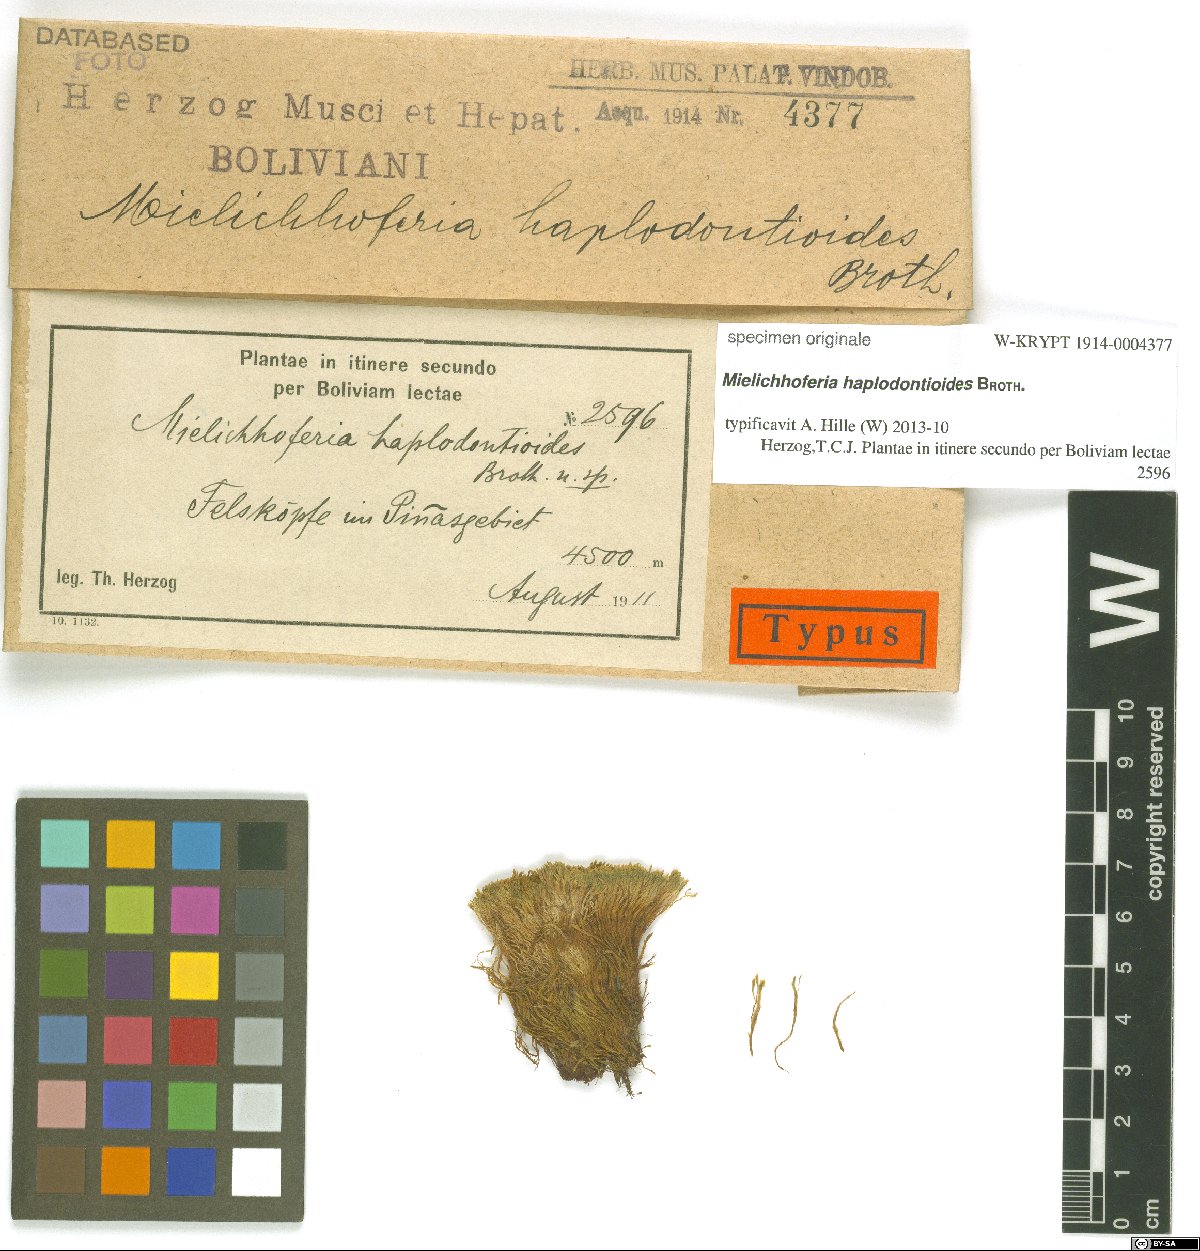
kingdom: Plantae
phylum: Bryophyta
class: Bryopsida
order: Bryales
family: Mniaceae
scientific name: Mniaceae
